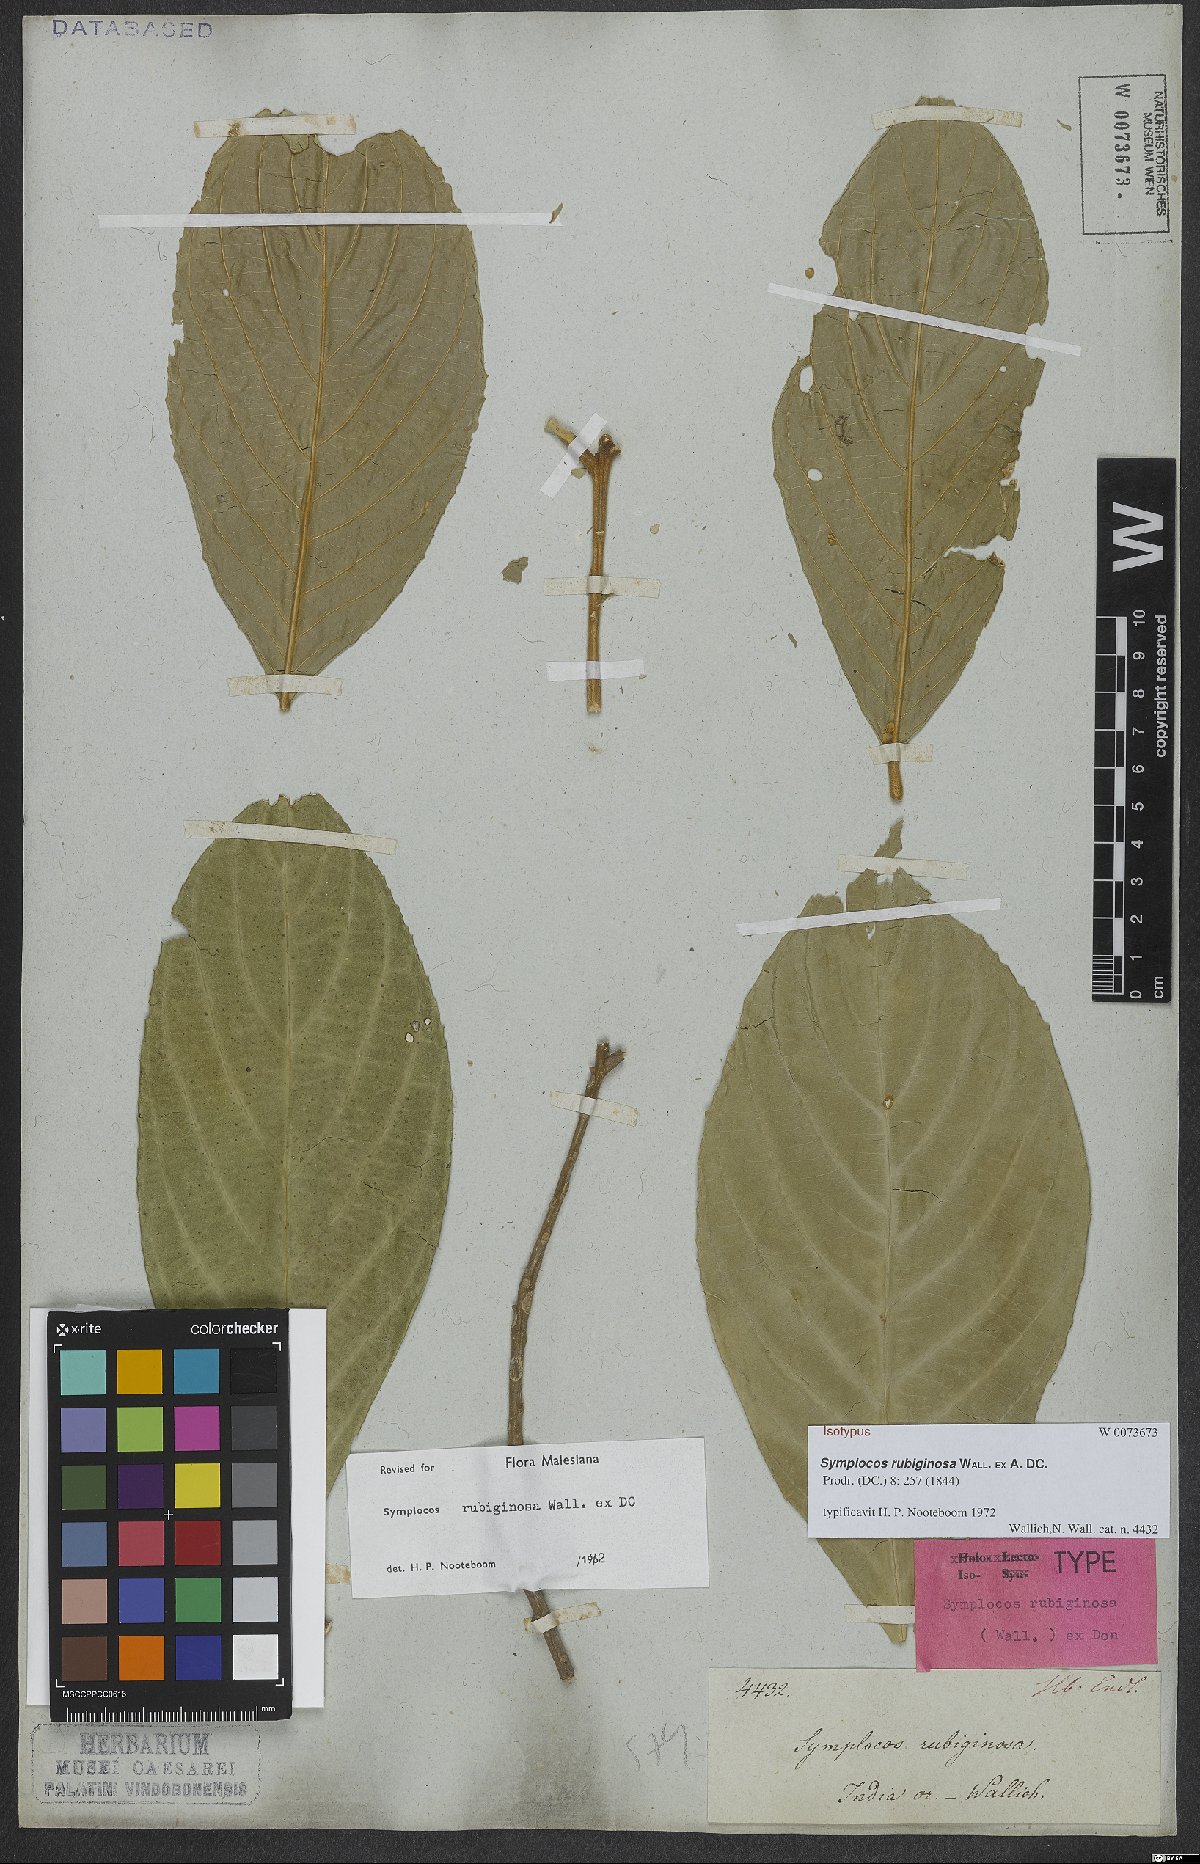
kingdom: Plantae
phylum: Tracheophyta
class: Magnoliopsida
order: Ericales
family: Symplocaceae
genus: Symplocos
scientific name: Symplocos rubiginosa
